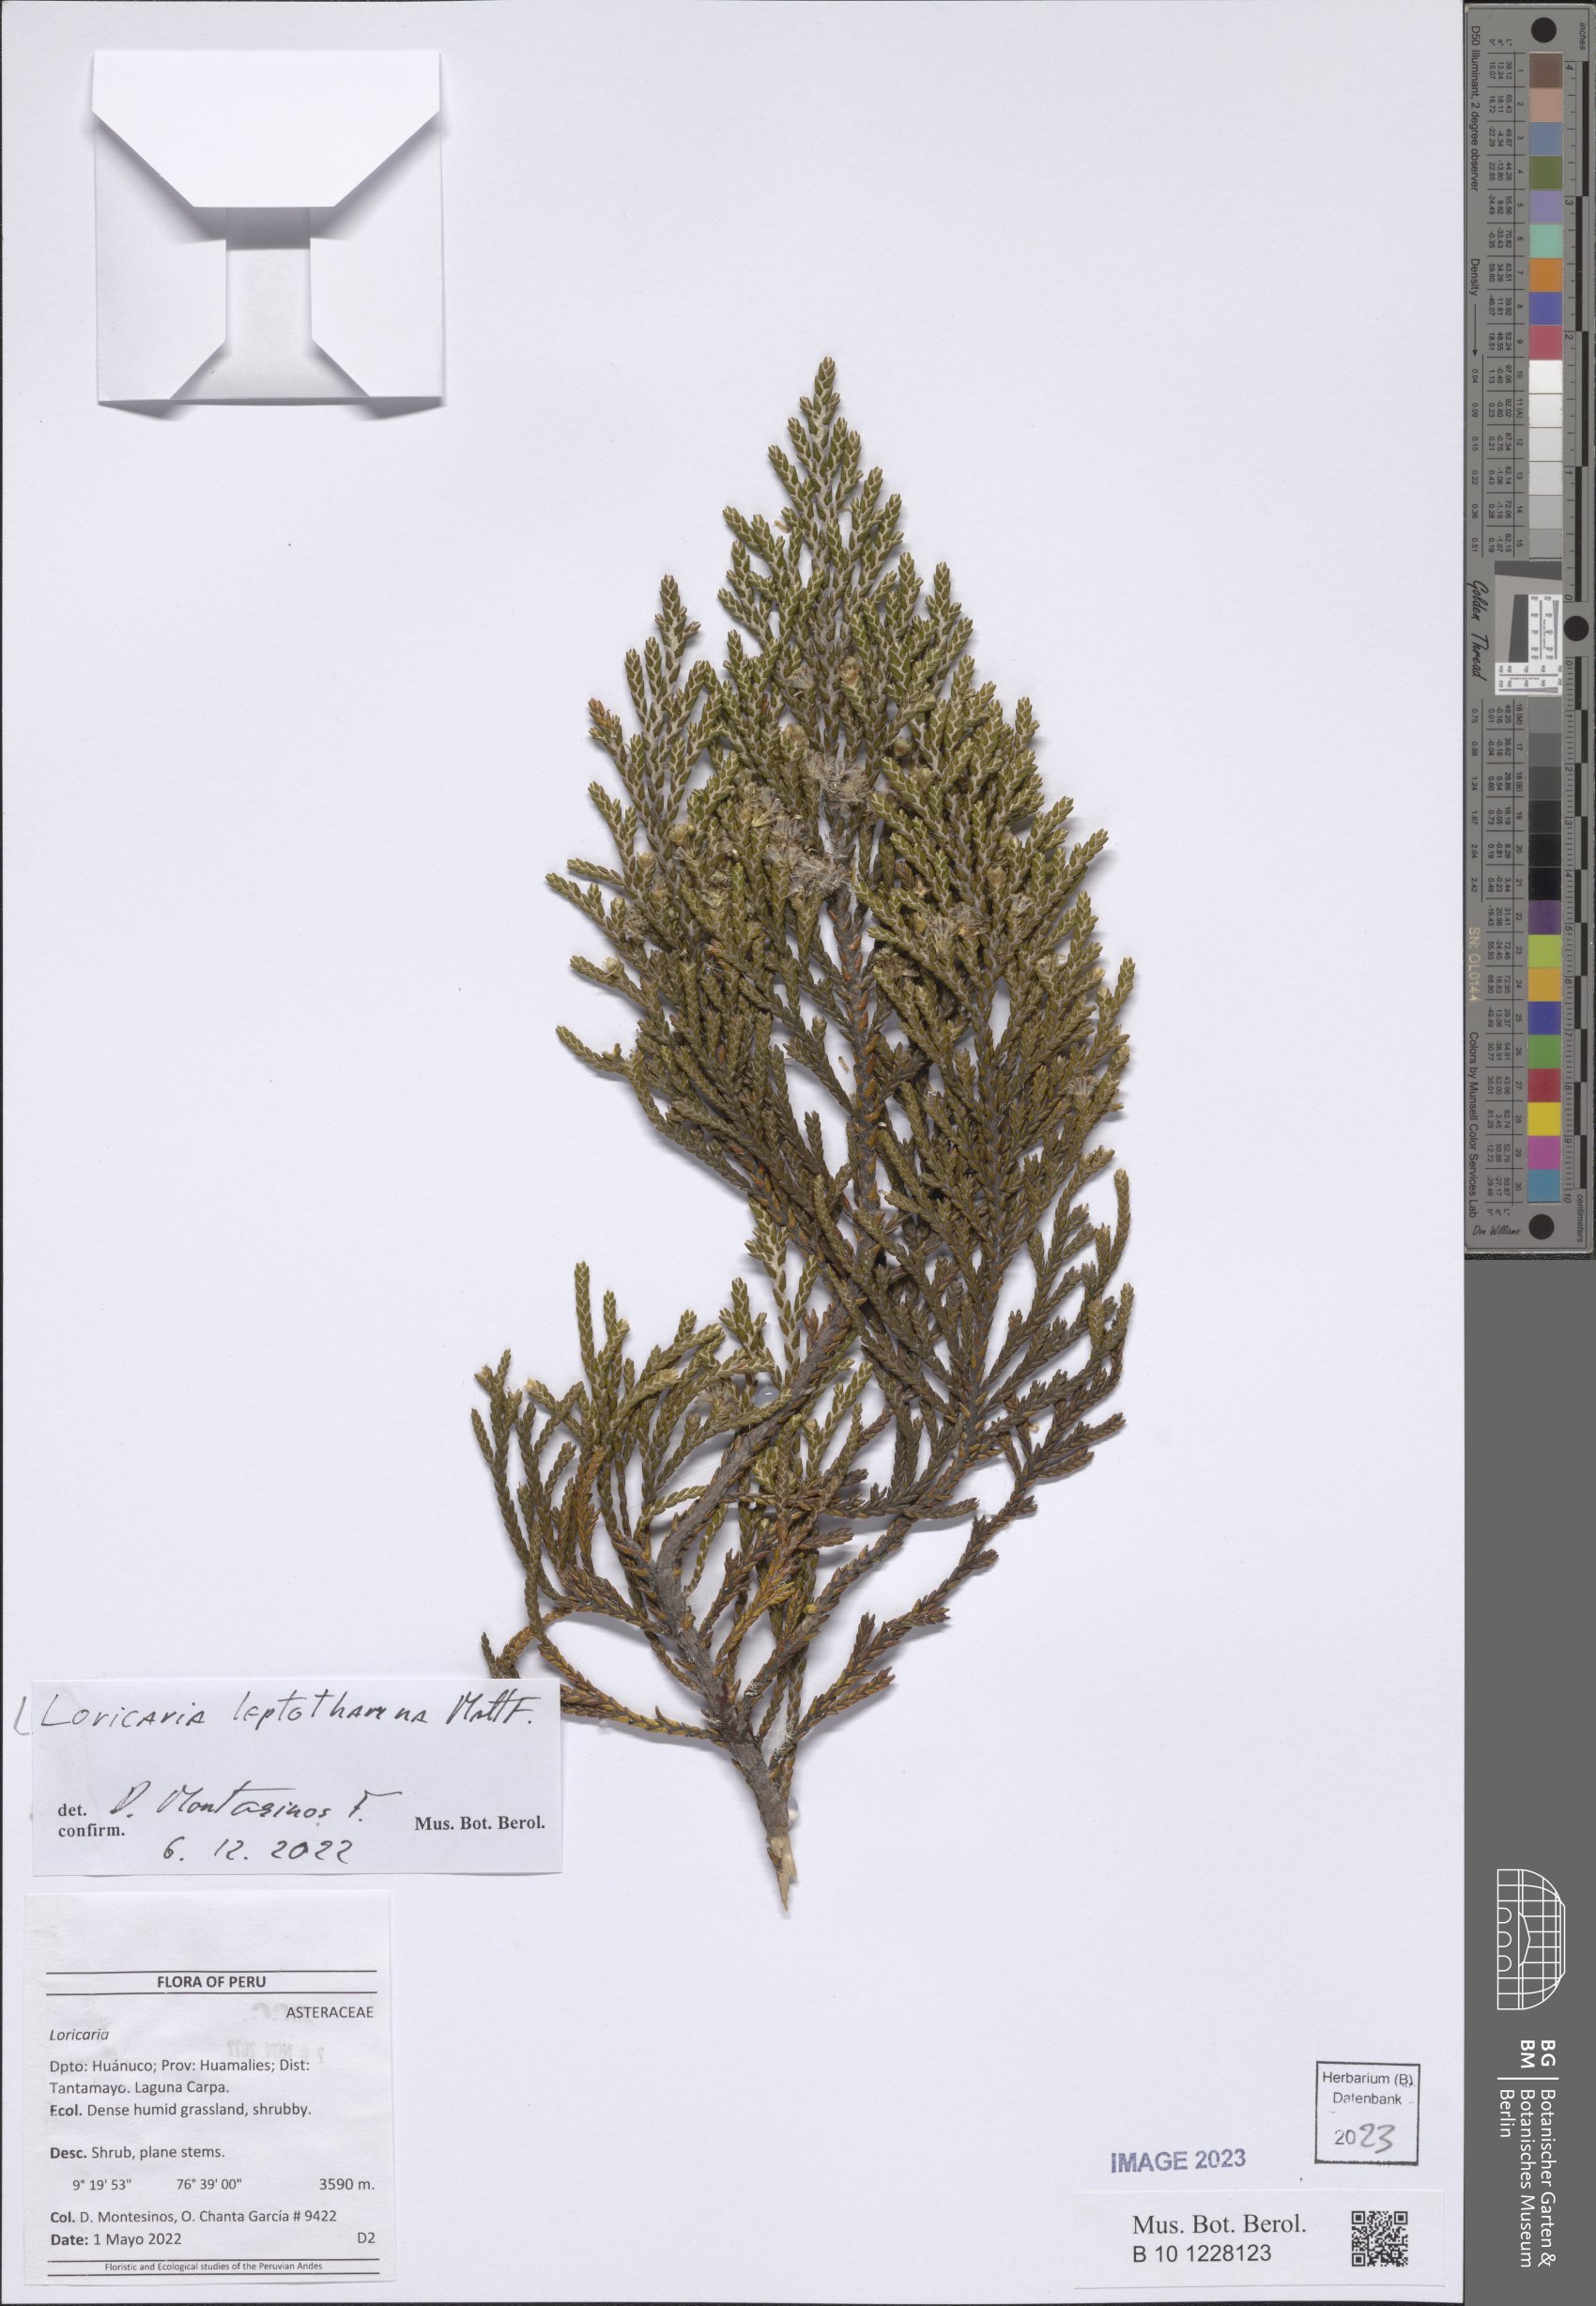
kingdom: Plantae
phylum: Tracheophyta
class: Magnoliopsida
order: Asterales
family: Asteraceae
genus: Andicolea
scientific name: Andicolea leptothamna
